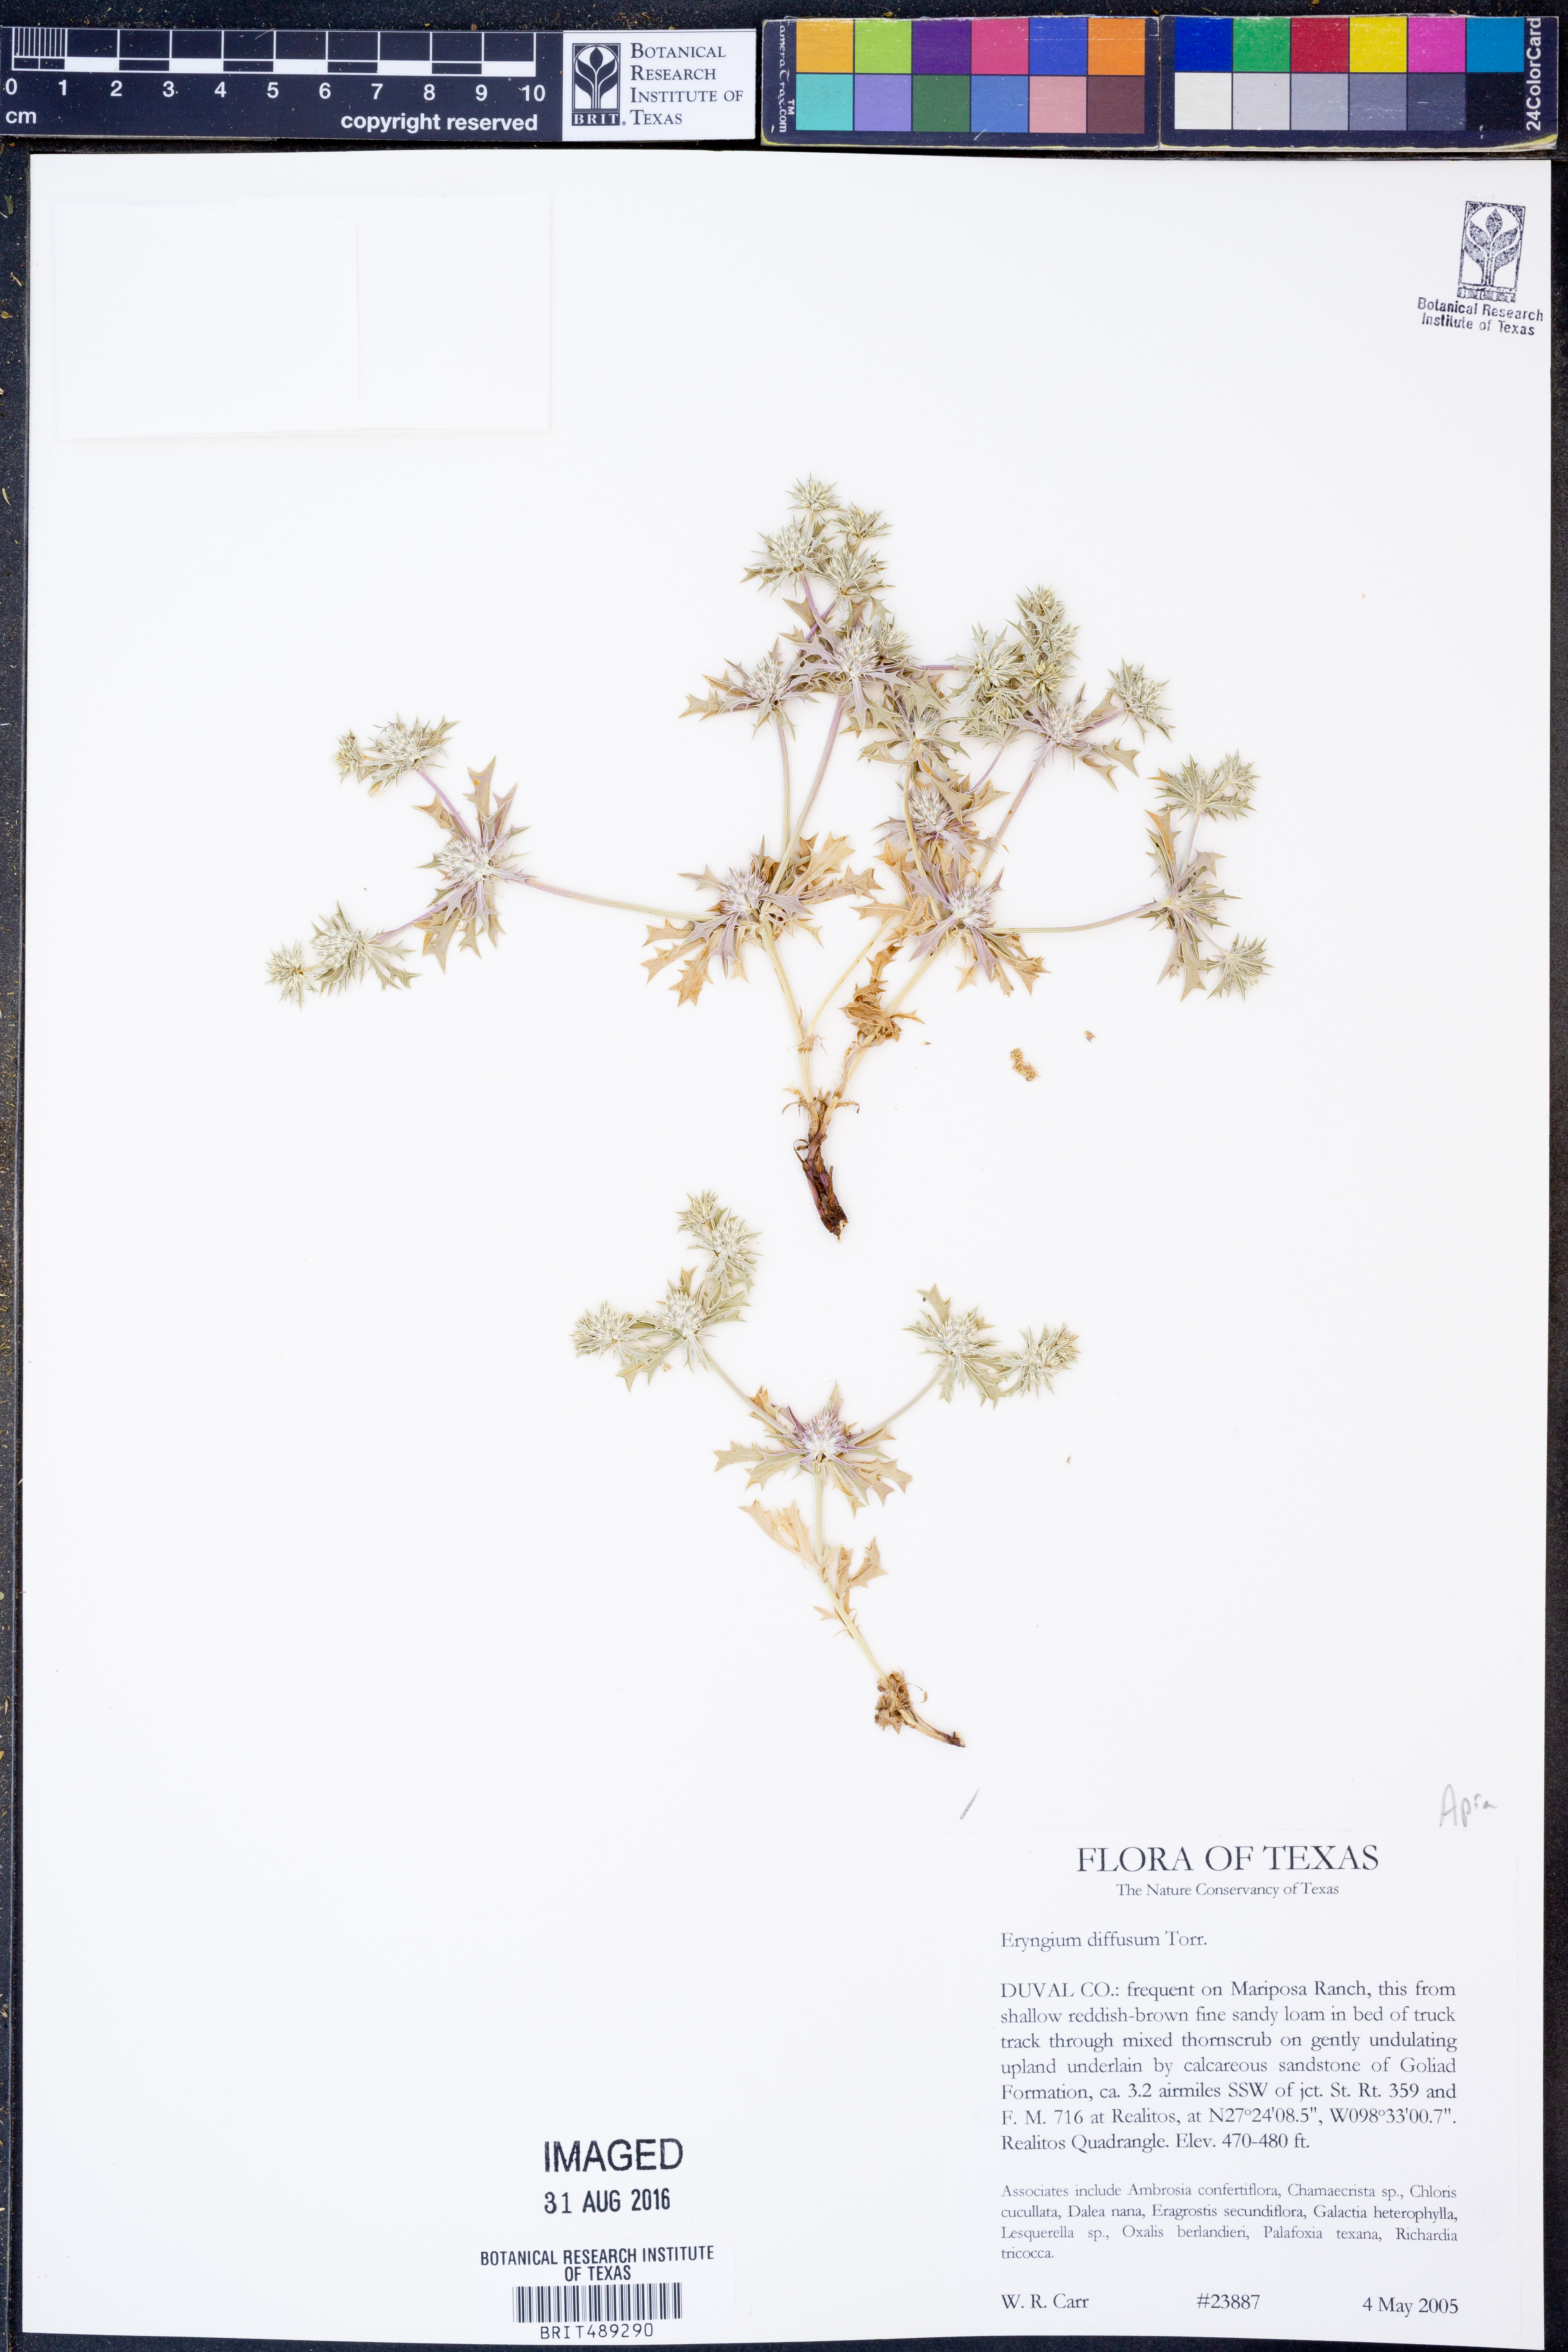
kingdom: Plantae
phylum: Tracheophyta
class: Magnoliopsida
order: Apiales
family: Apiaceae
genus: Eryngium
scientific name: Eryngium diffusum
